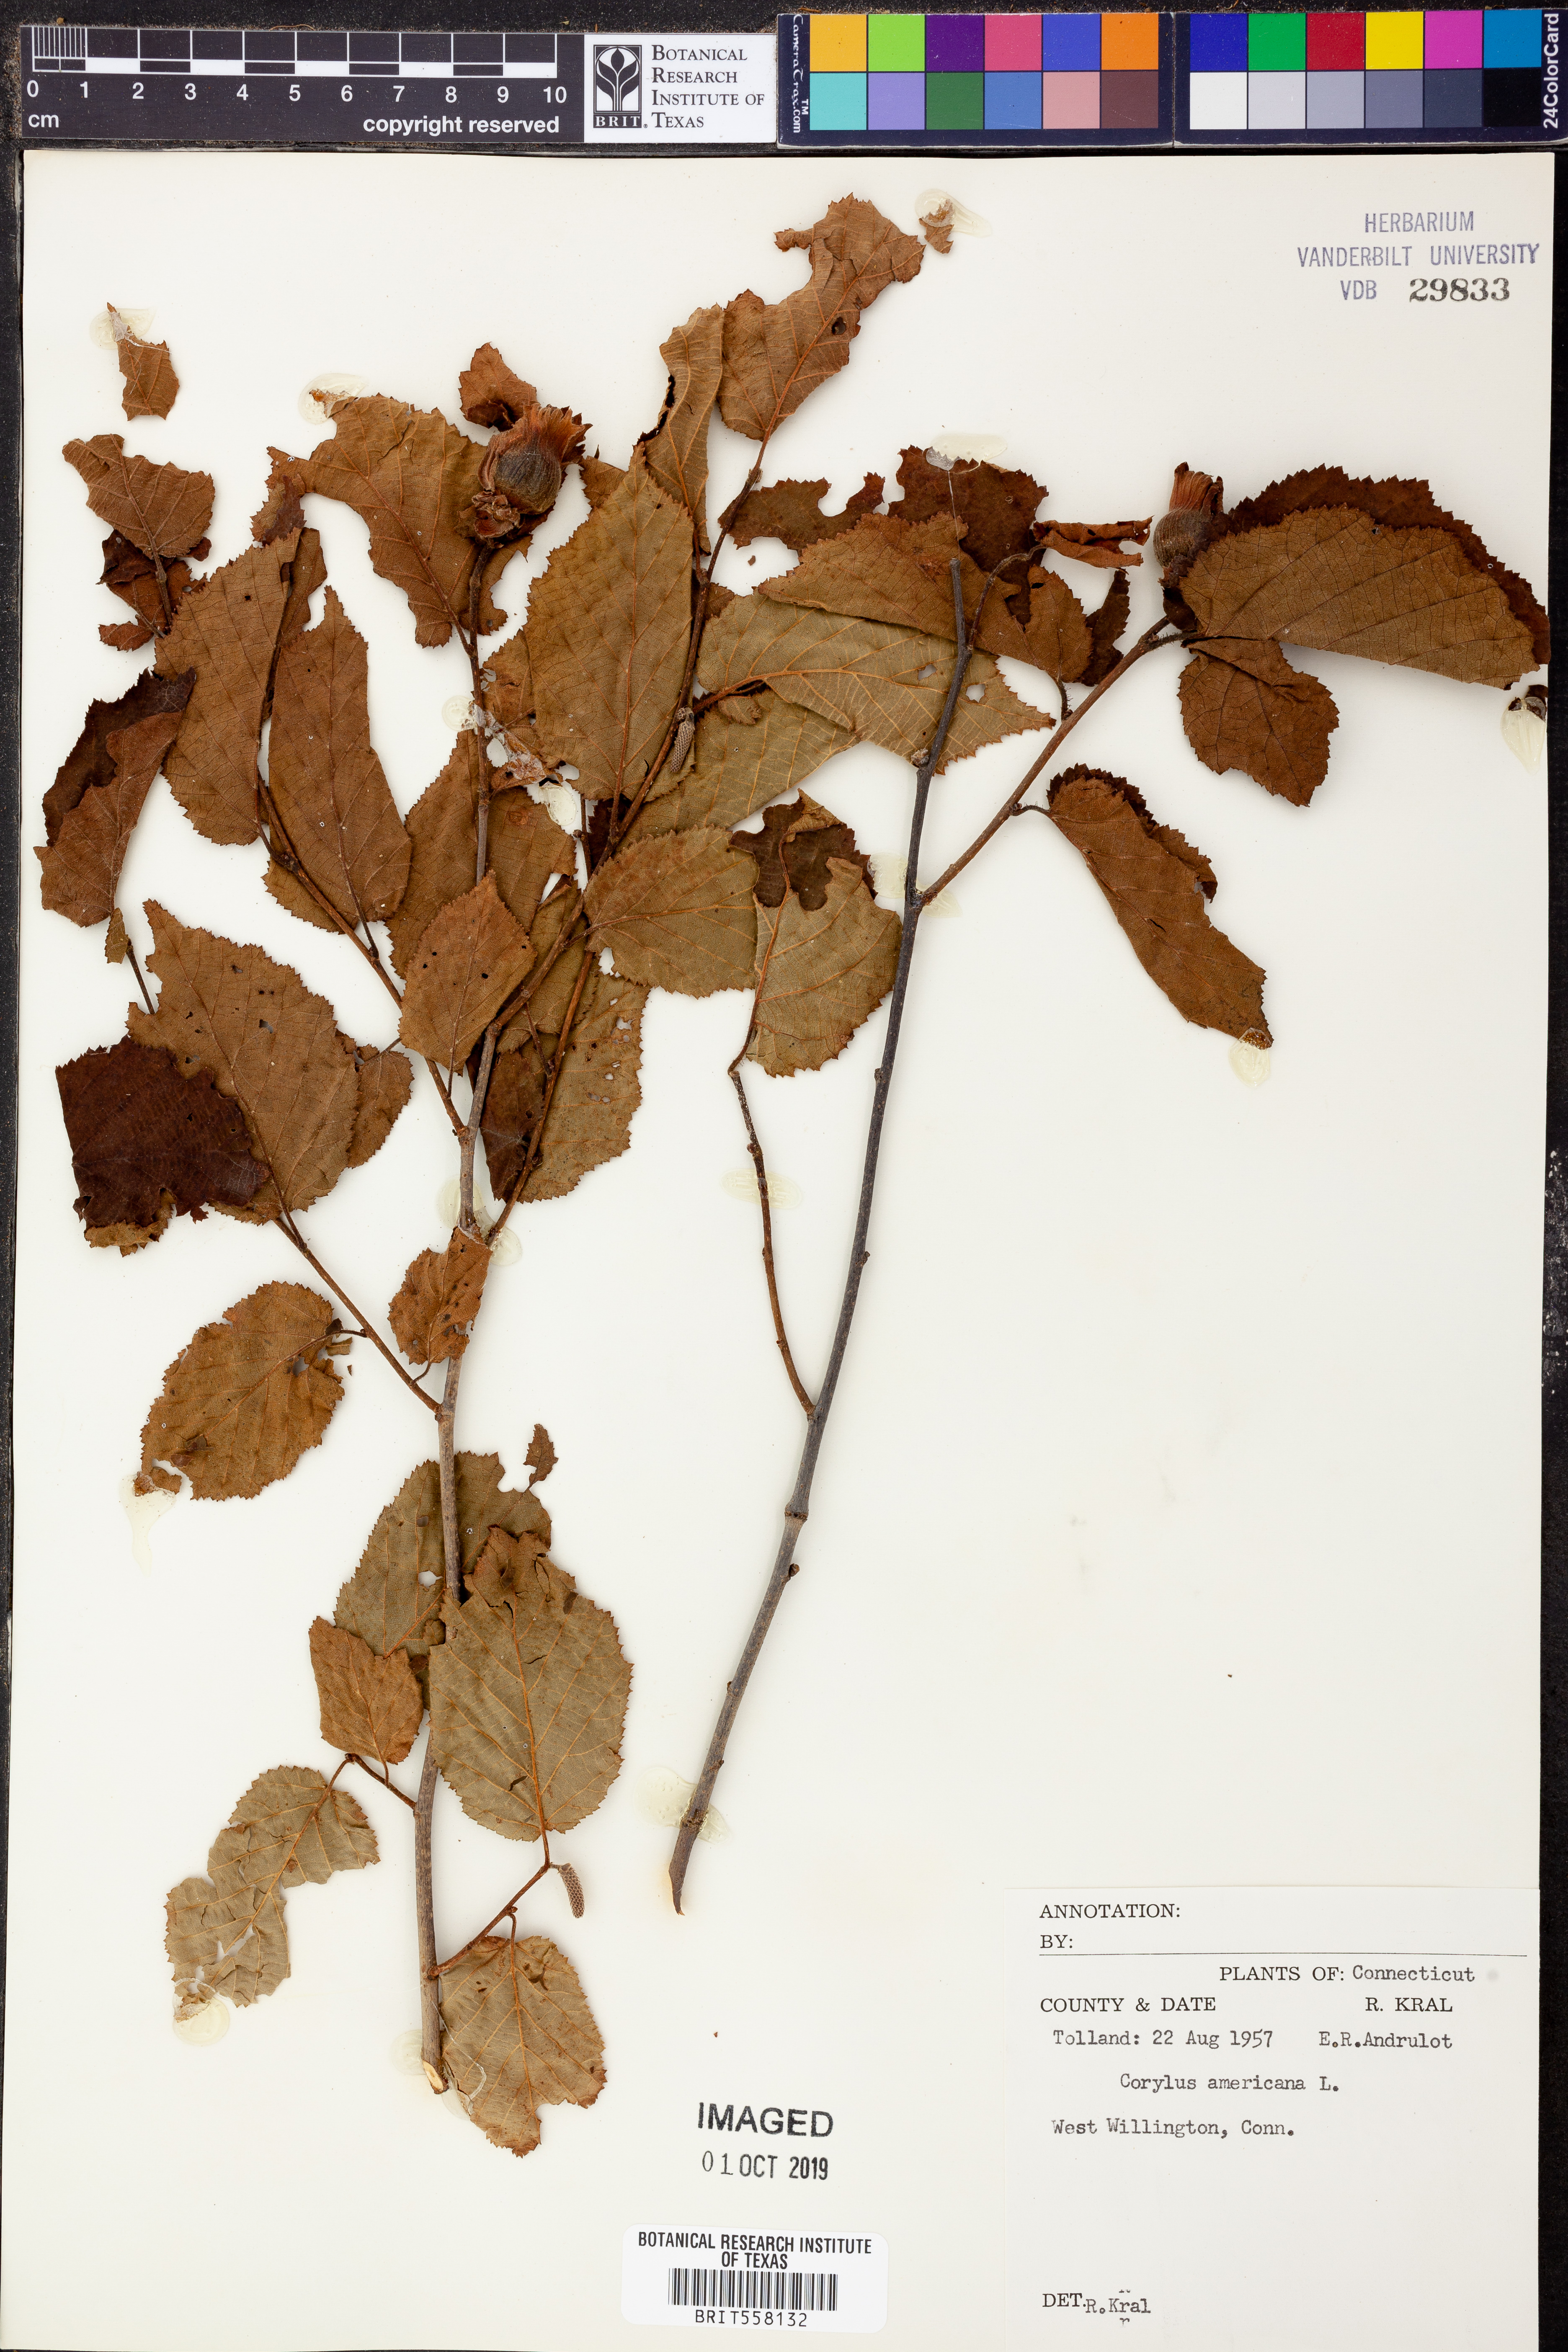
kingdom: Plantae
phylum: Tracheophyta
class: Magnoliopsida
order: Fagales
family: Betulaceae
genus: Corylus
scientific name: Corylus americana
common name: American hazel
